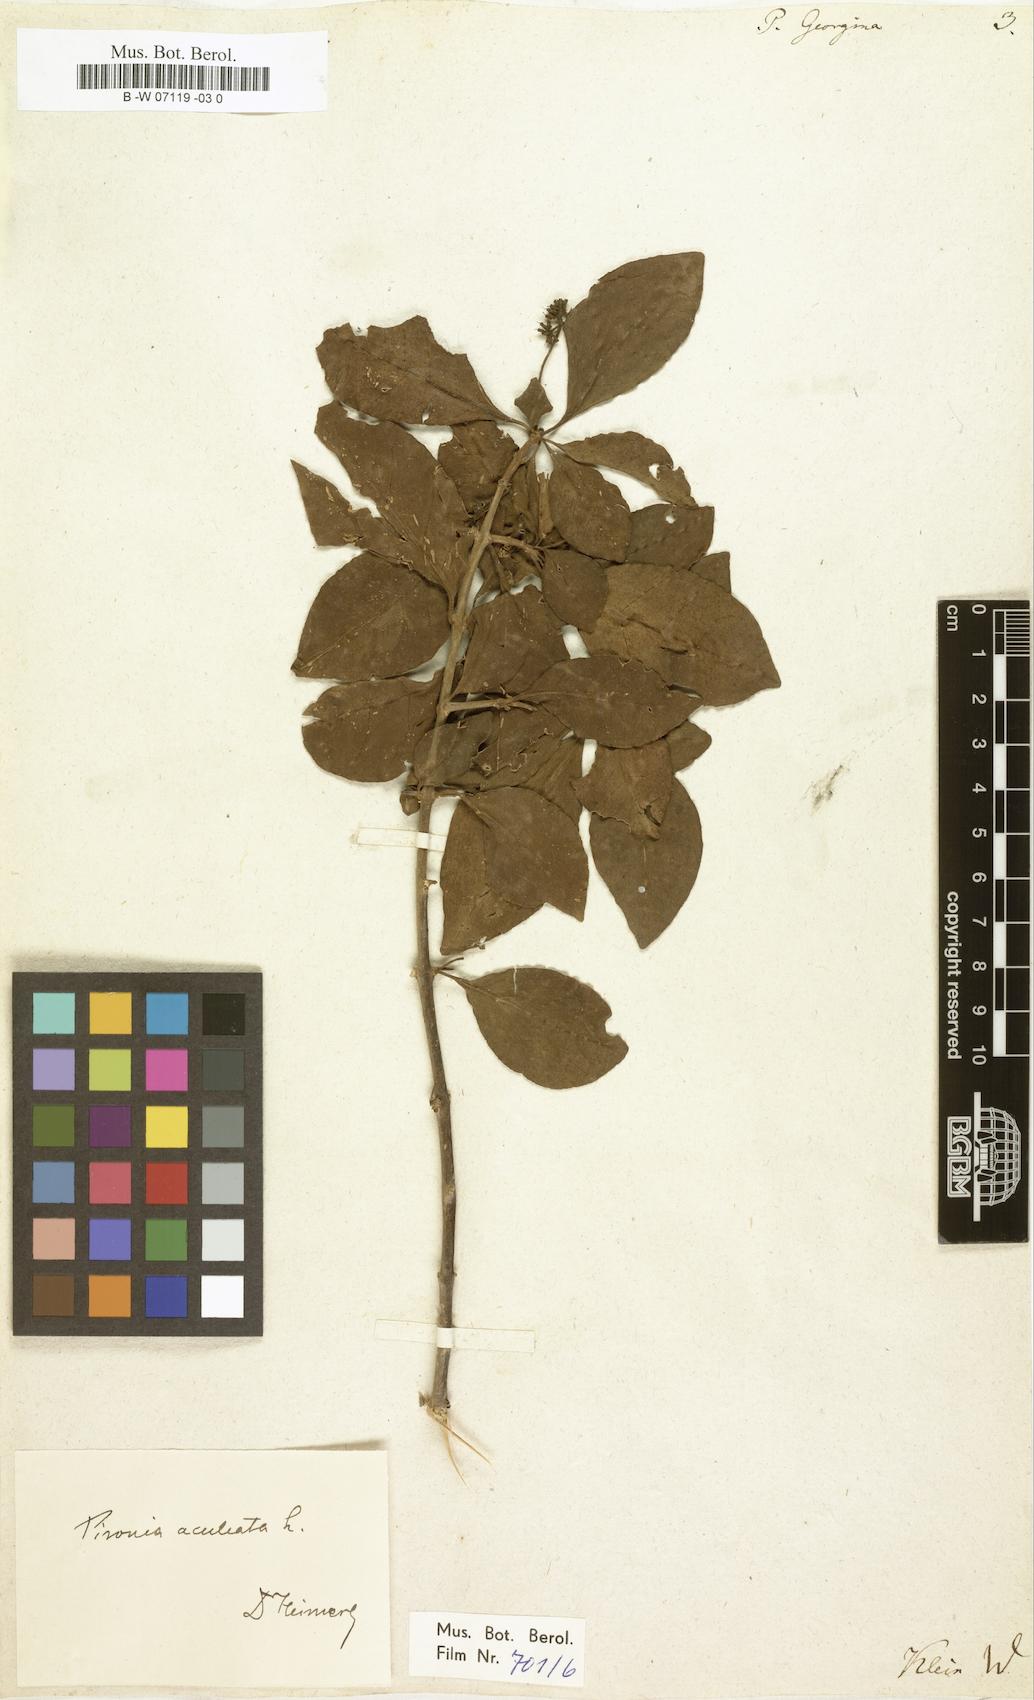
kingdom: Plantae
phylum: Tracheophyta
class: Magnoliopsida
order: Caryophyllales
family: Nyctaginaceae
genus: Pisonia
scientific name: Pisonia aculeata
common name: Cockspur vine
